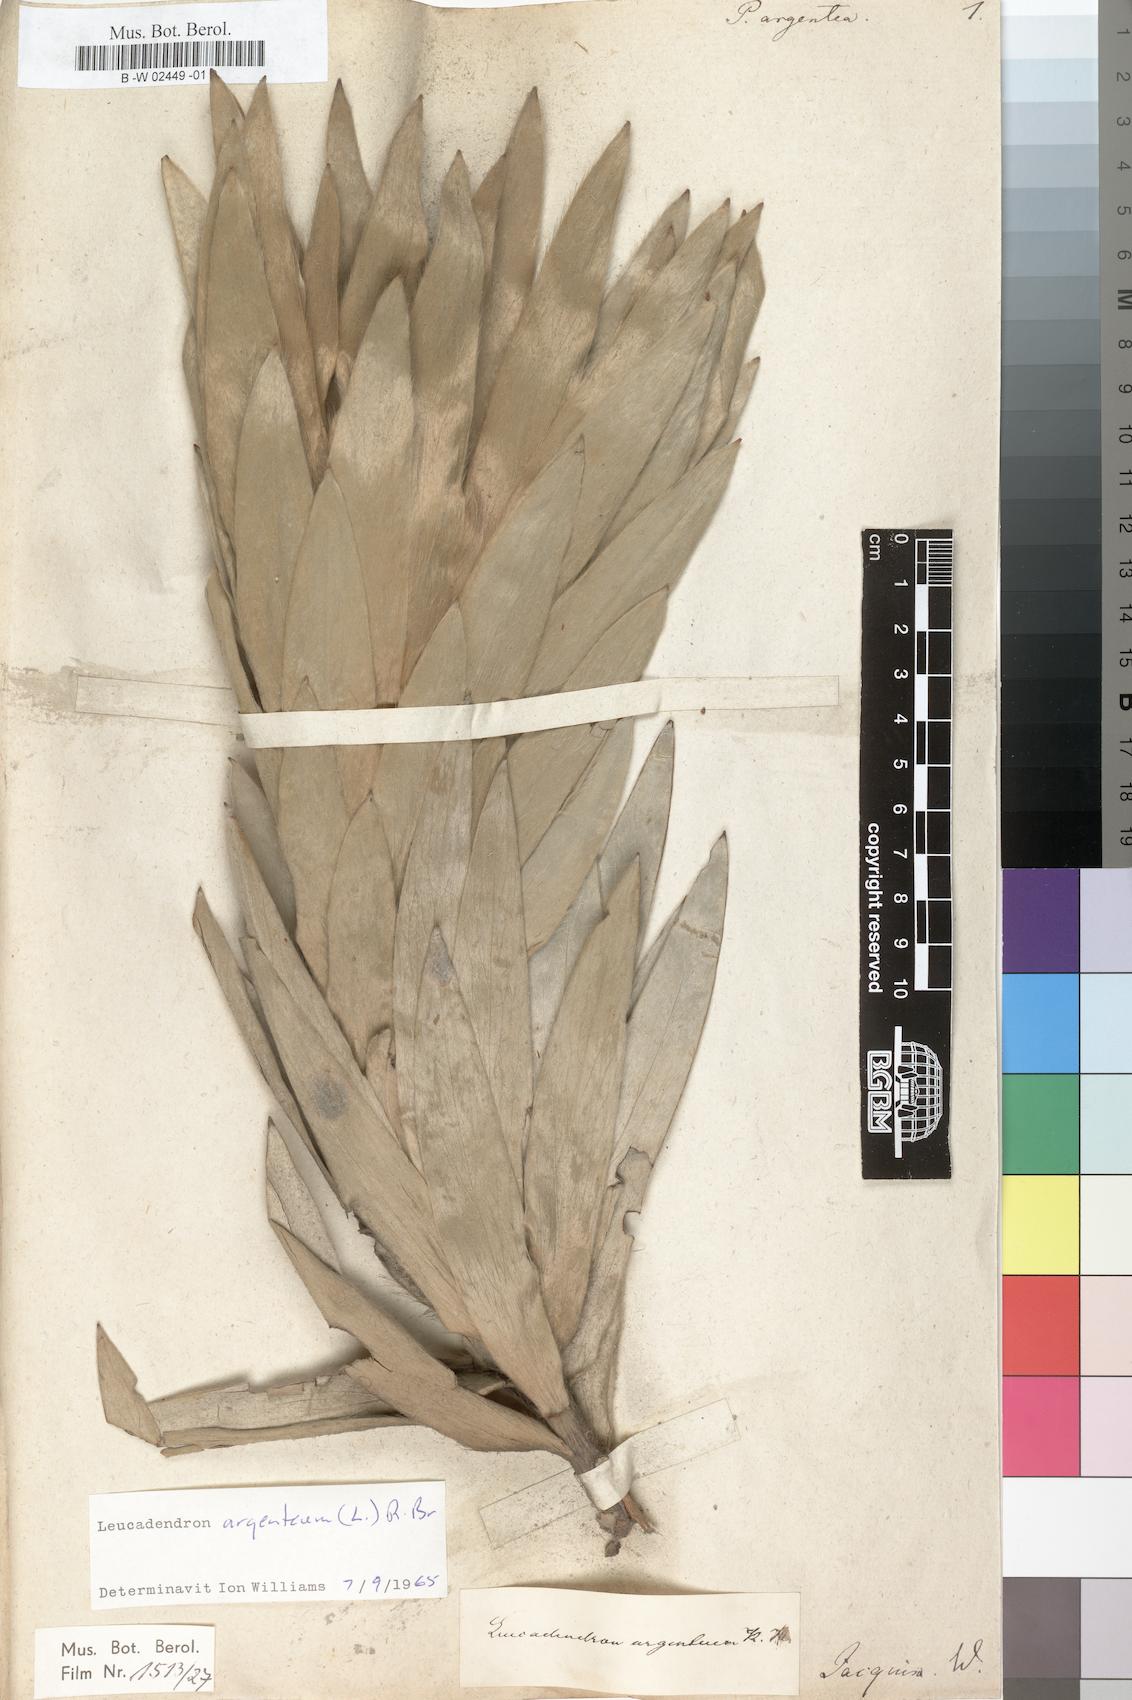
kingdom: Plantae
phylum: Tracheophyta
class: Magnoliopsida
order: Proteales
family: Proteaceae
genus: Leucadendron
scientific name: Leucadendron argenteum
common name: Cape silver tree
